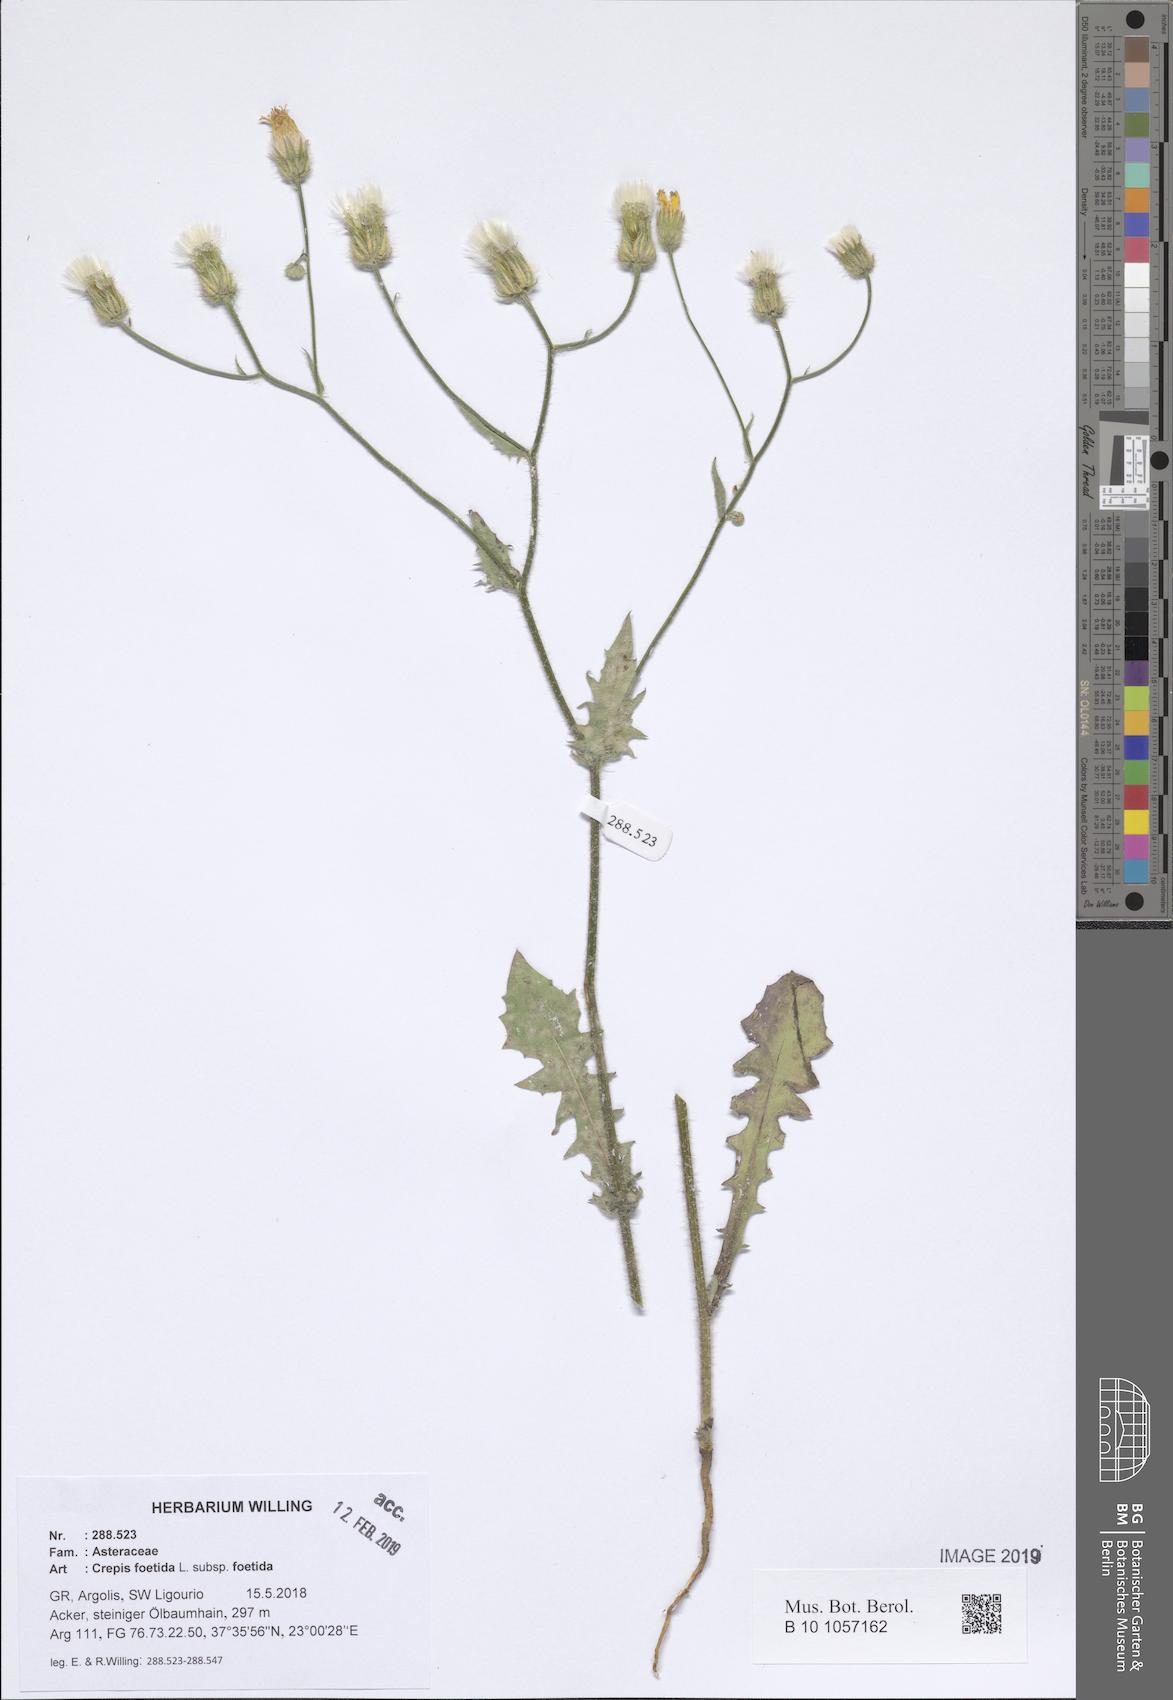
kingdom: Plantae
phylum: Tracheophyta
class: Magnoliopsida
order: Asterales
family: Asteraceae
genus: Crepis
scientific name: Crepis foetida
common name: Stinking hawk's-beard
